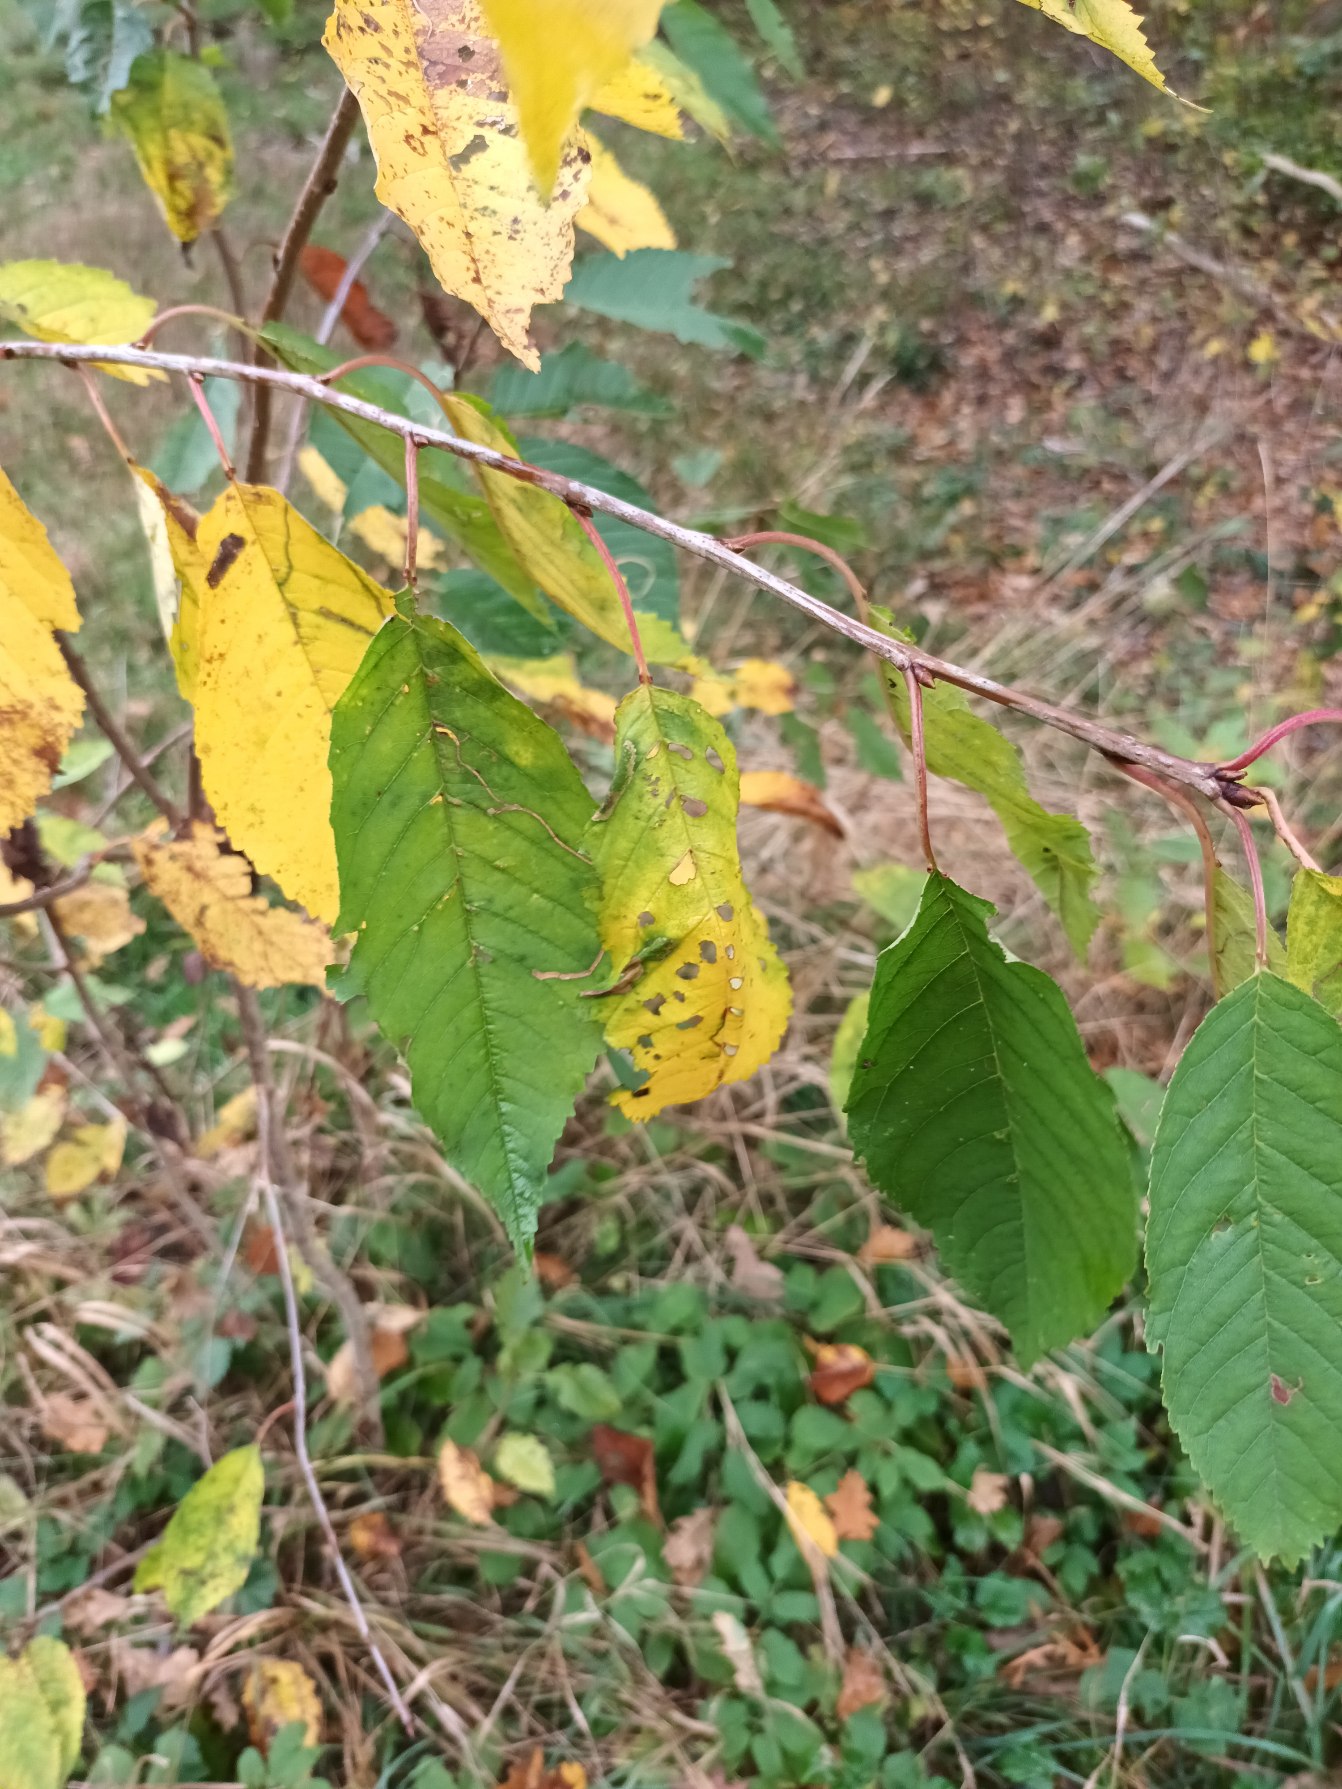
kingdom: Plantae
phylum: Tracheophyta
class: Magnoliopsida
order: Rosales
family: Rosaceae
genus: Prunus
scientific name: Prunus avium
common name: Fugle-kirsebær
